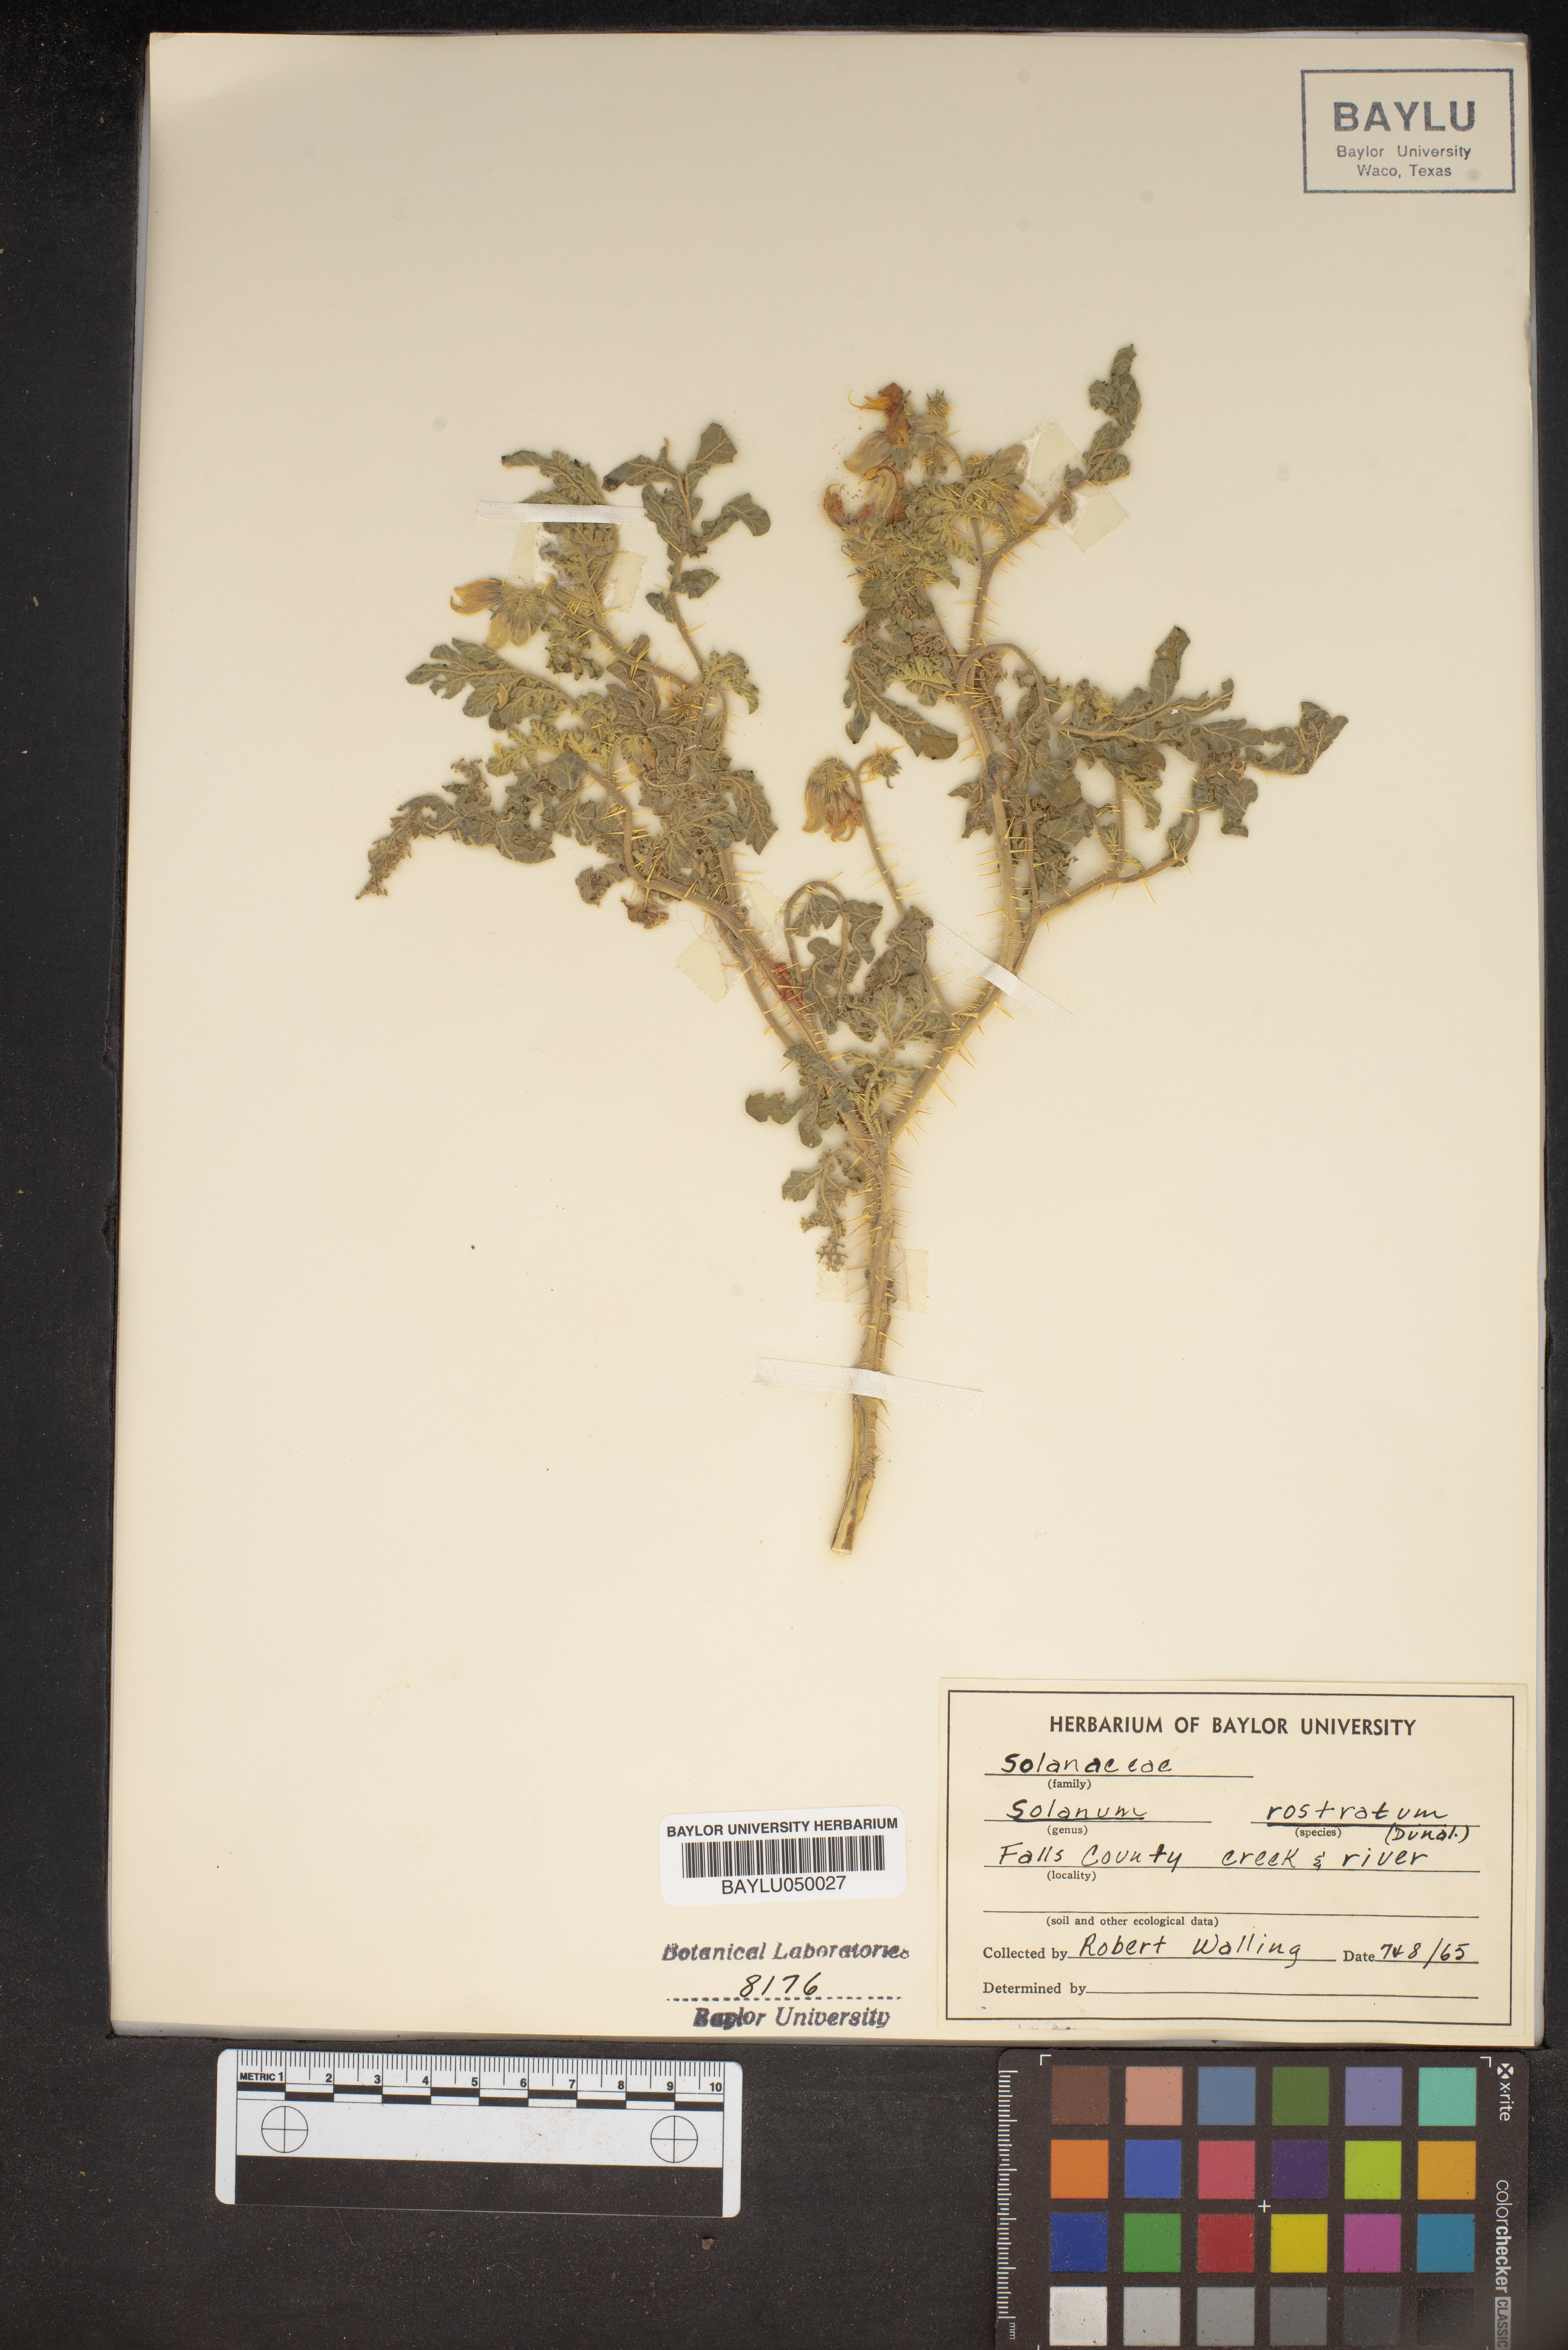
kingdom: Plantae
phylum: Tracheophyta
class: Magnoliopsida
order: Solanales
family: Solanaceae
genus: Solanum
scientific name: Solanum angustifolium
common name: Buffalobur nightshade
